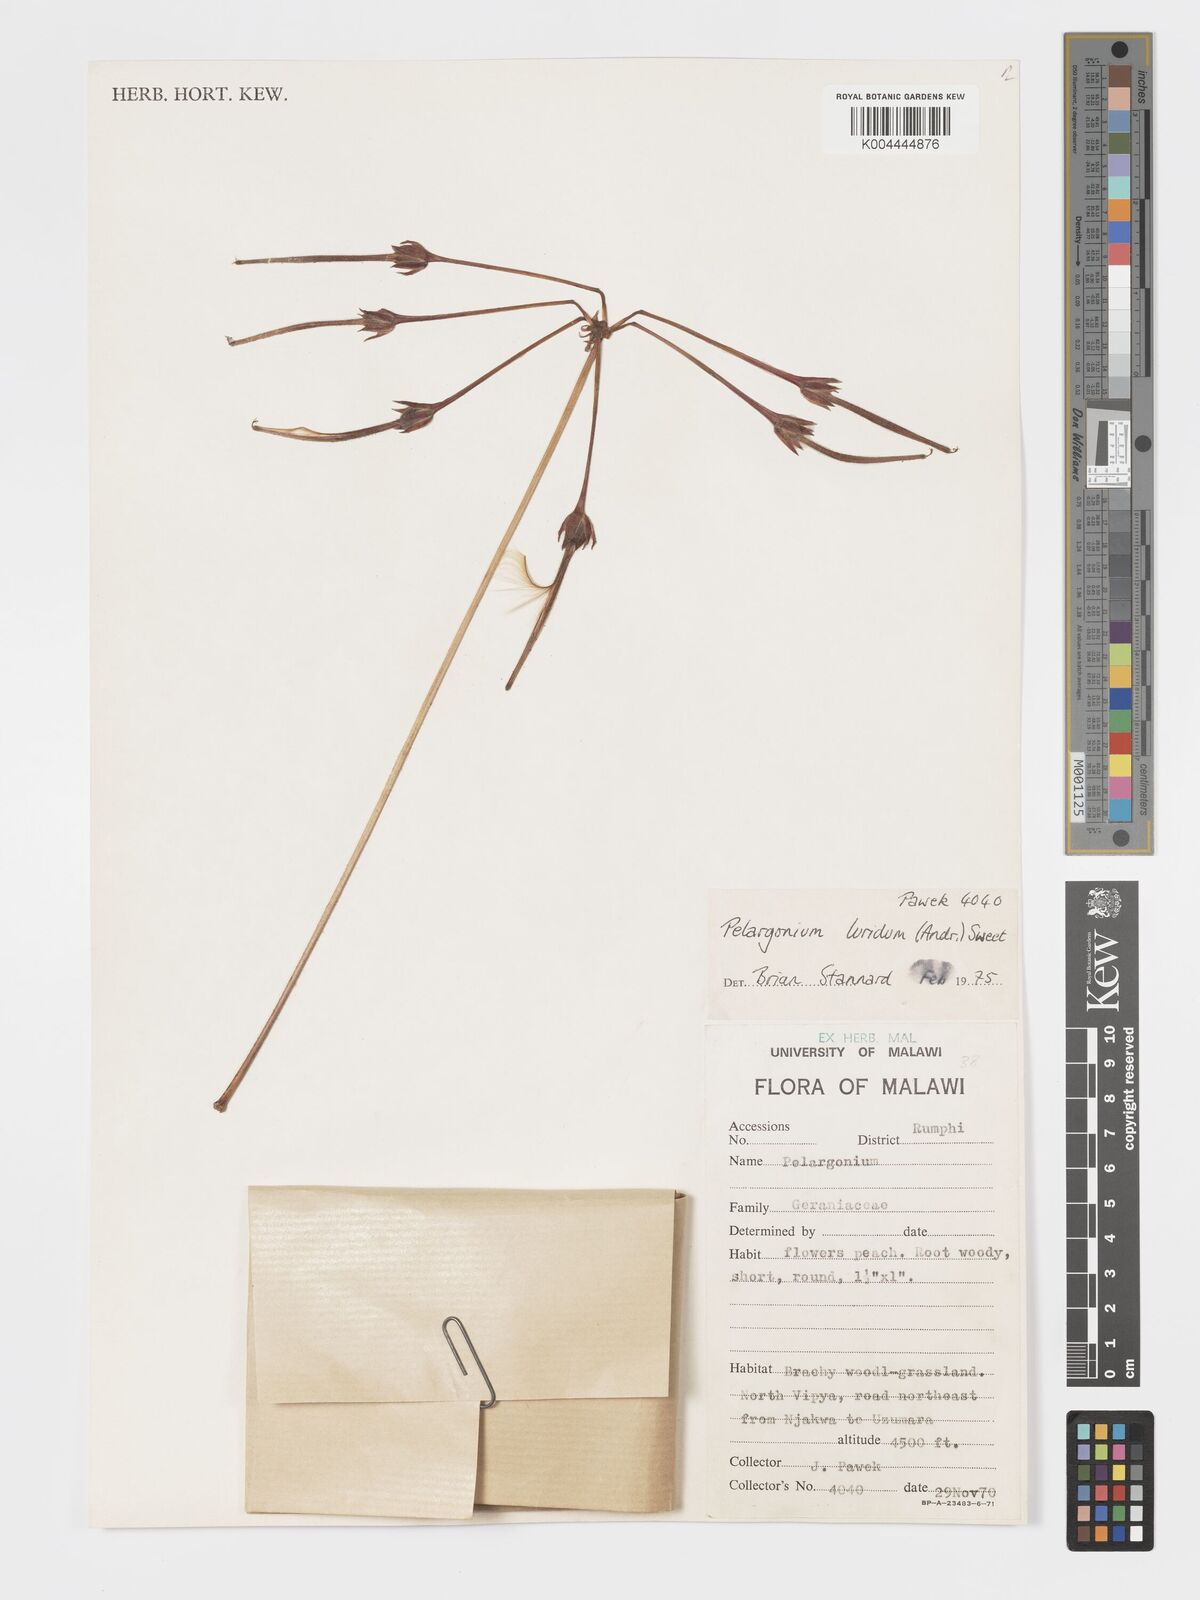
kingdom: Plantae
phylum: Tracheophyta
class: Magnoliopsida
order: Geraniales
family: Geraniaceae
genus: Pelargonium
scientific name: Pelargonium luridum
